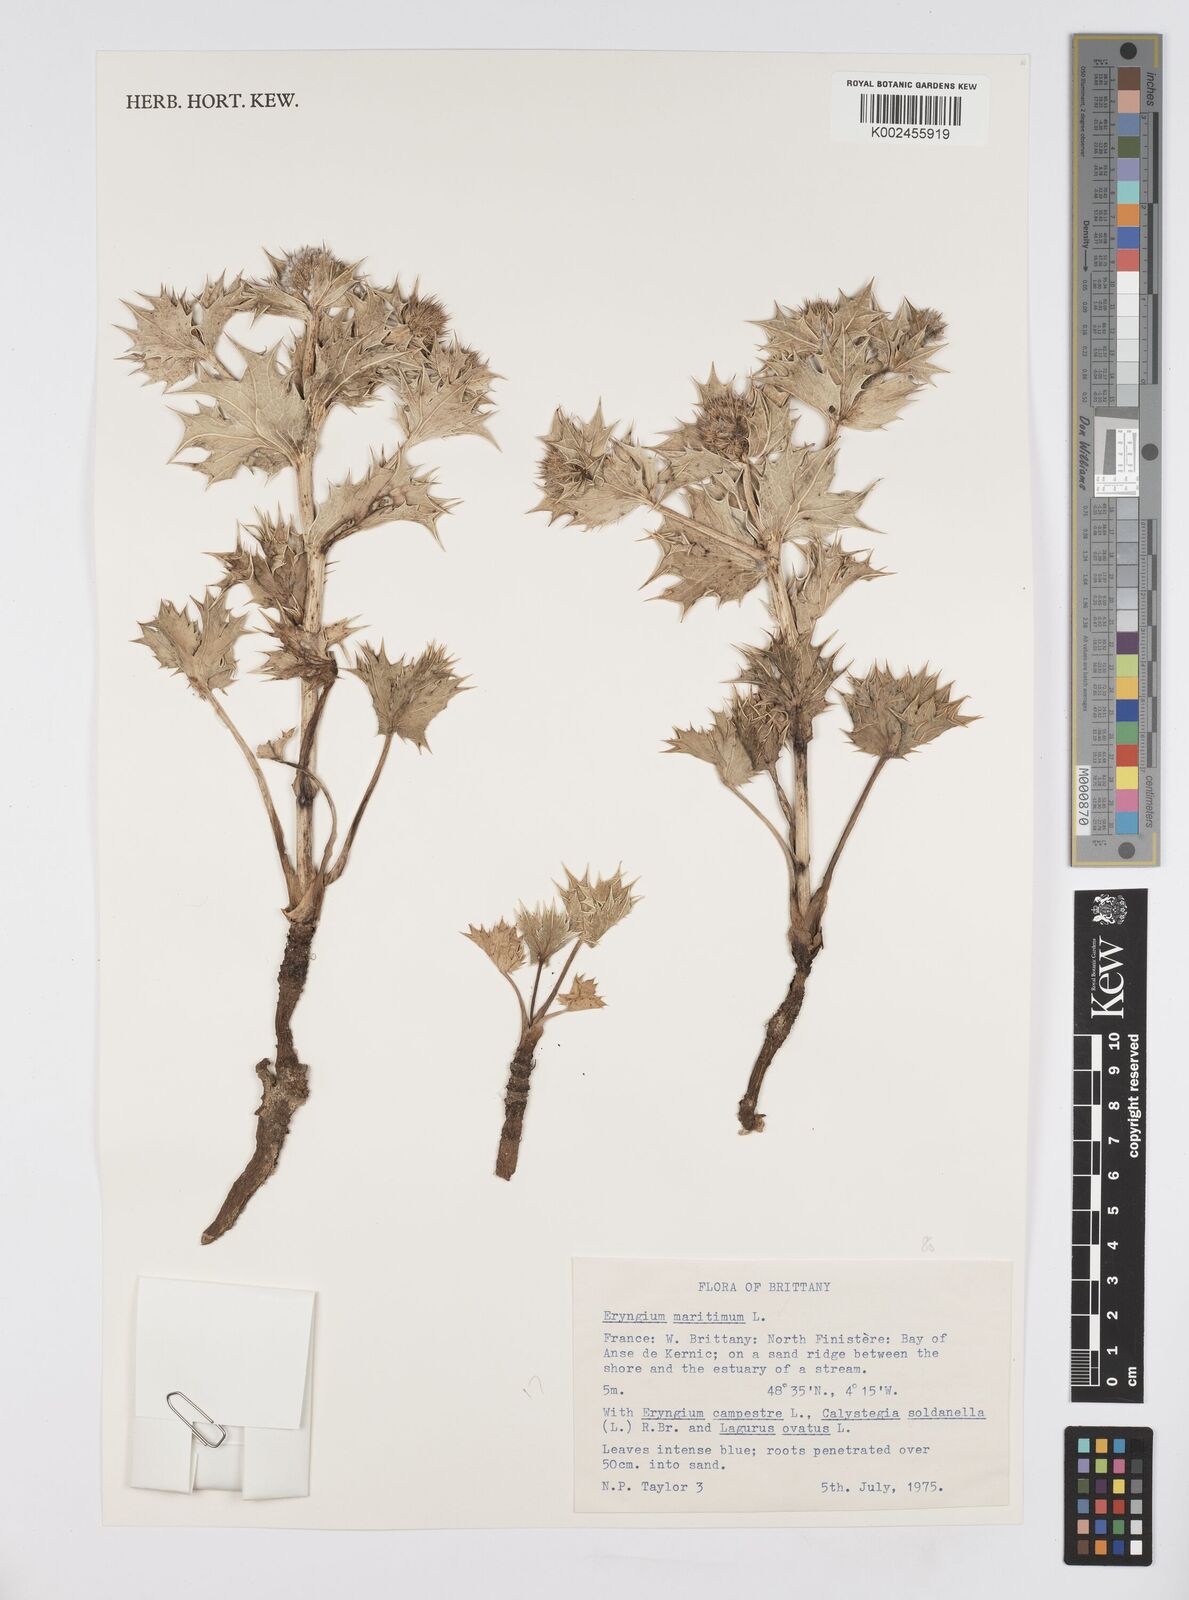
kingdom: Plantae
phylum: Tracheophyta
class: Magnoliopsida
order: Apiales
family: Apiaceae
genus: Eryngium
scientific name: Eryngium maritimum
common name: Sea-holly
